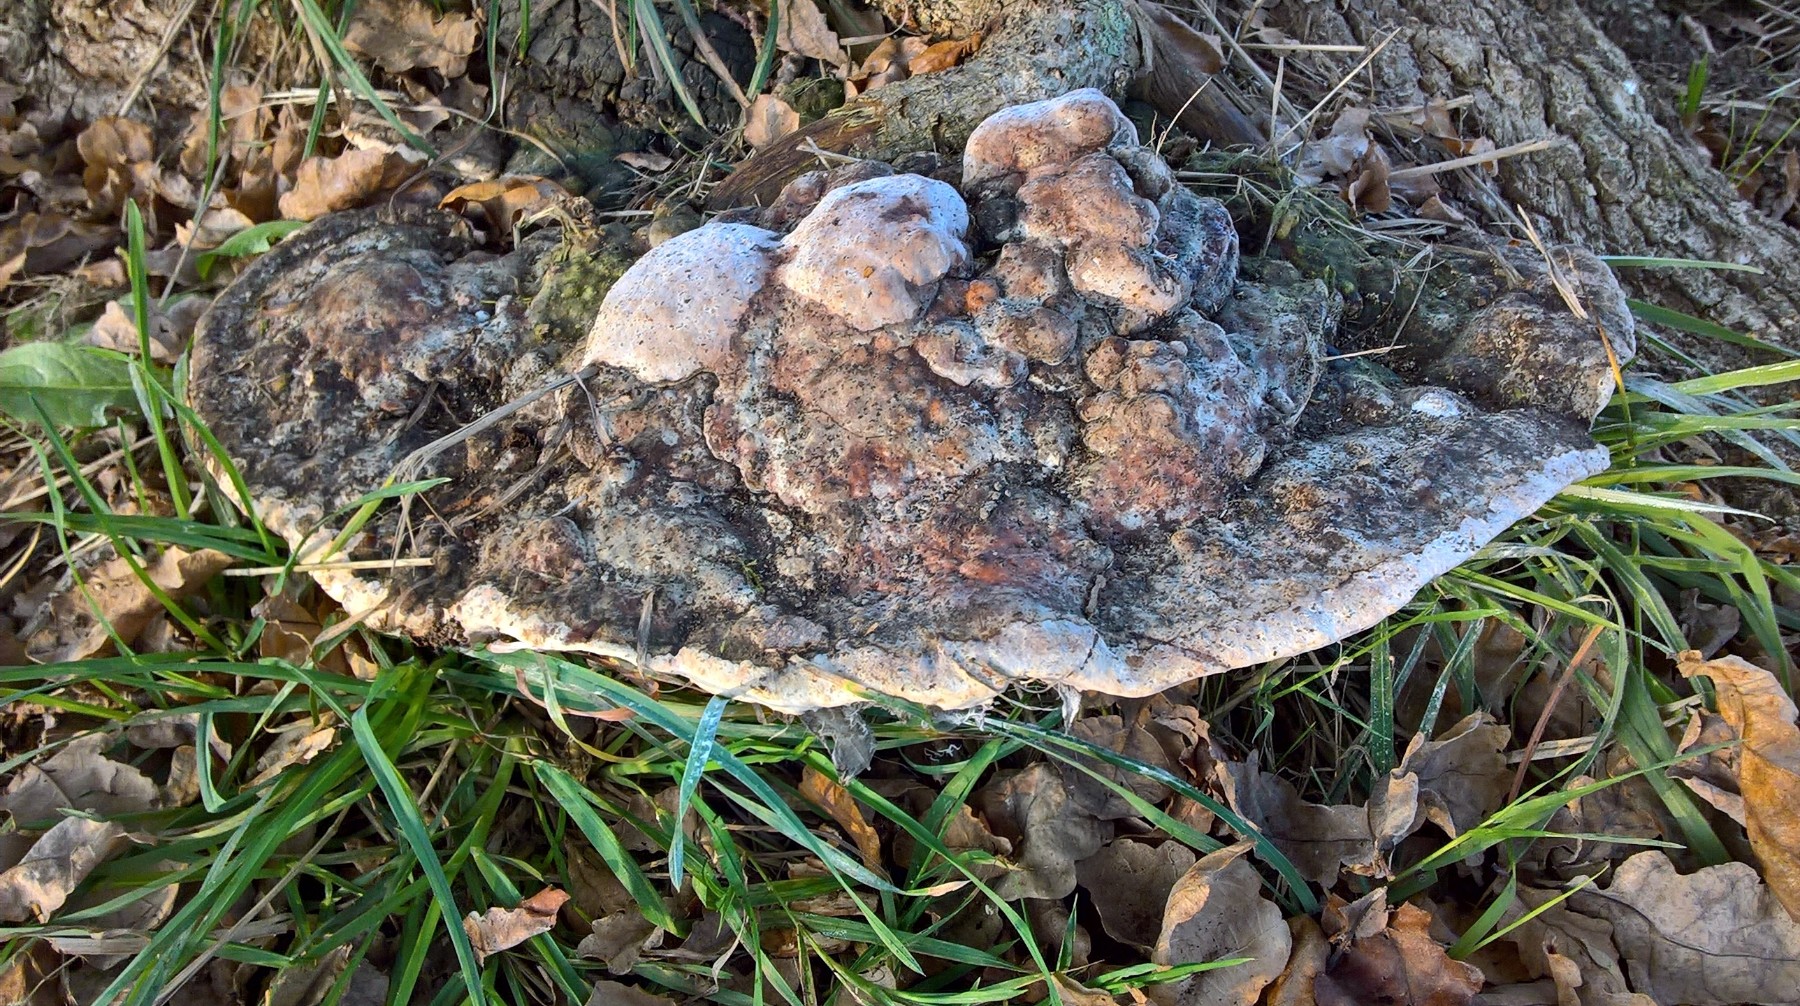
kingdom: Fungi
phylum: Basidiomycota
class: Agaricomycetes
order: Polyporales
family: Polyporaceae
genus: Vanderbylia
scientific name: Vanderbylia fraxinea
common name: stor kanelporesvamp
